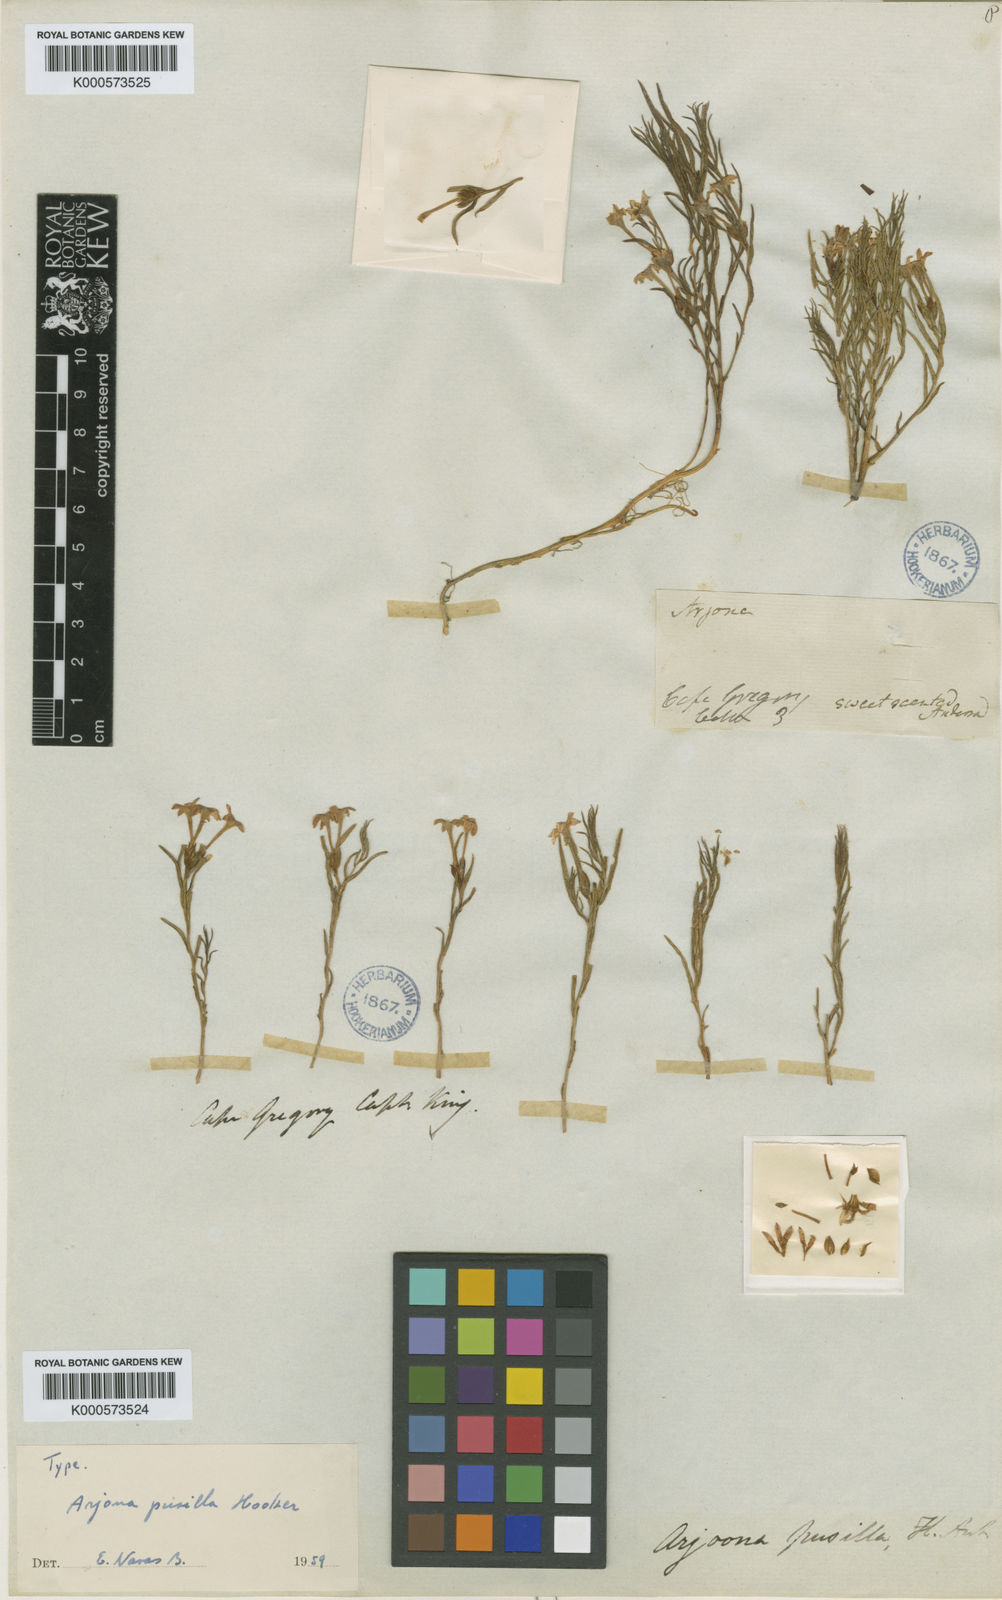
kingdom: Plantae
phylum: Tracheophyta
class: Magnoliopsida
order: Santalales
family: Schoepfiaceae
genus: Arjona
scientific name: Arjona pusilla
